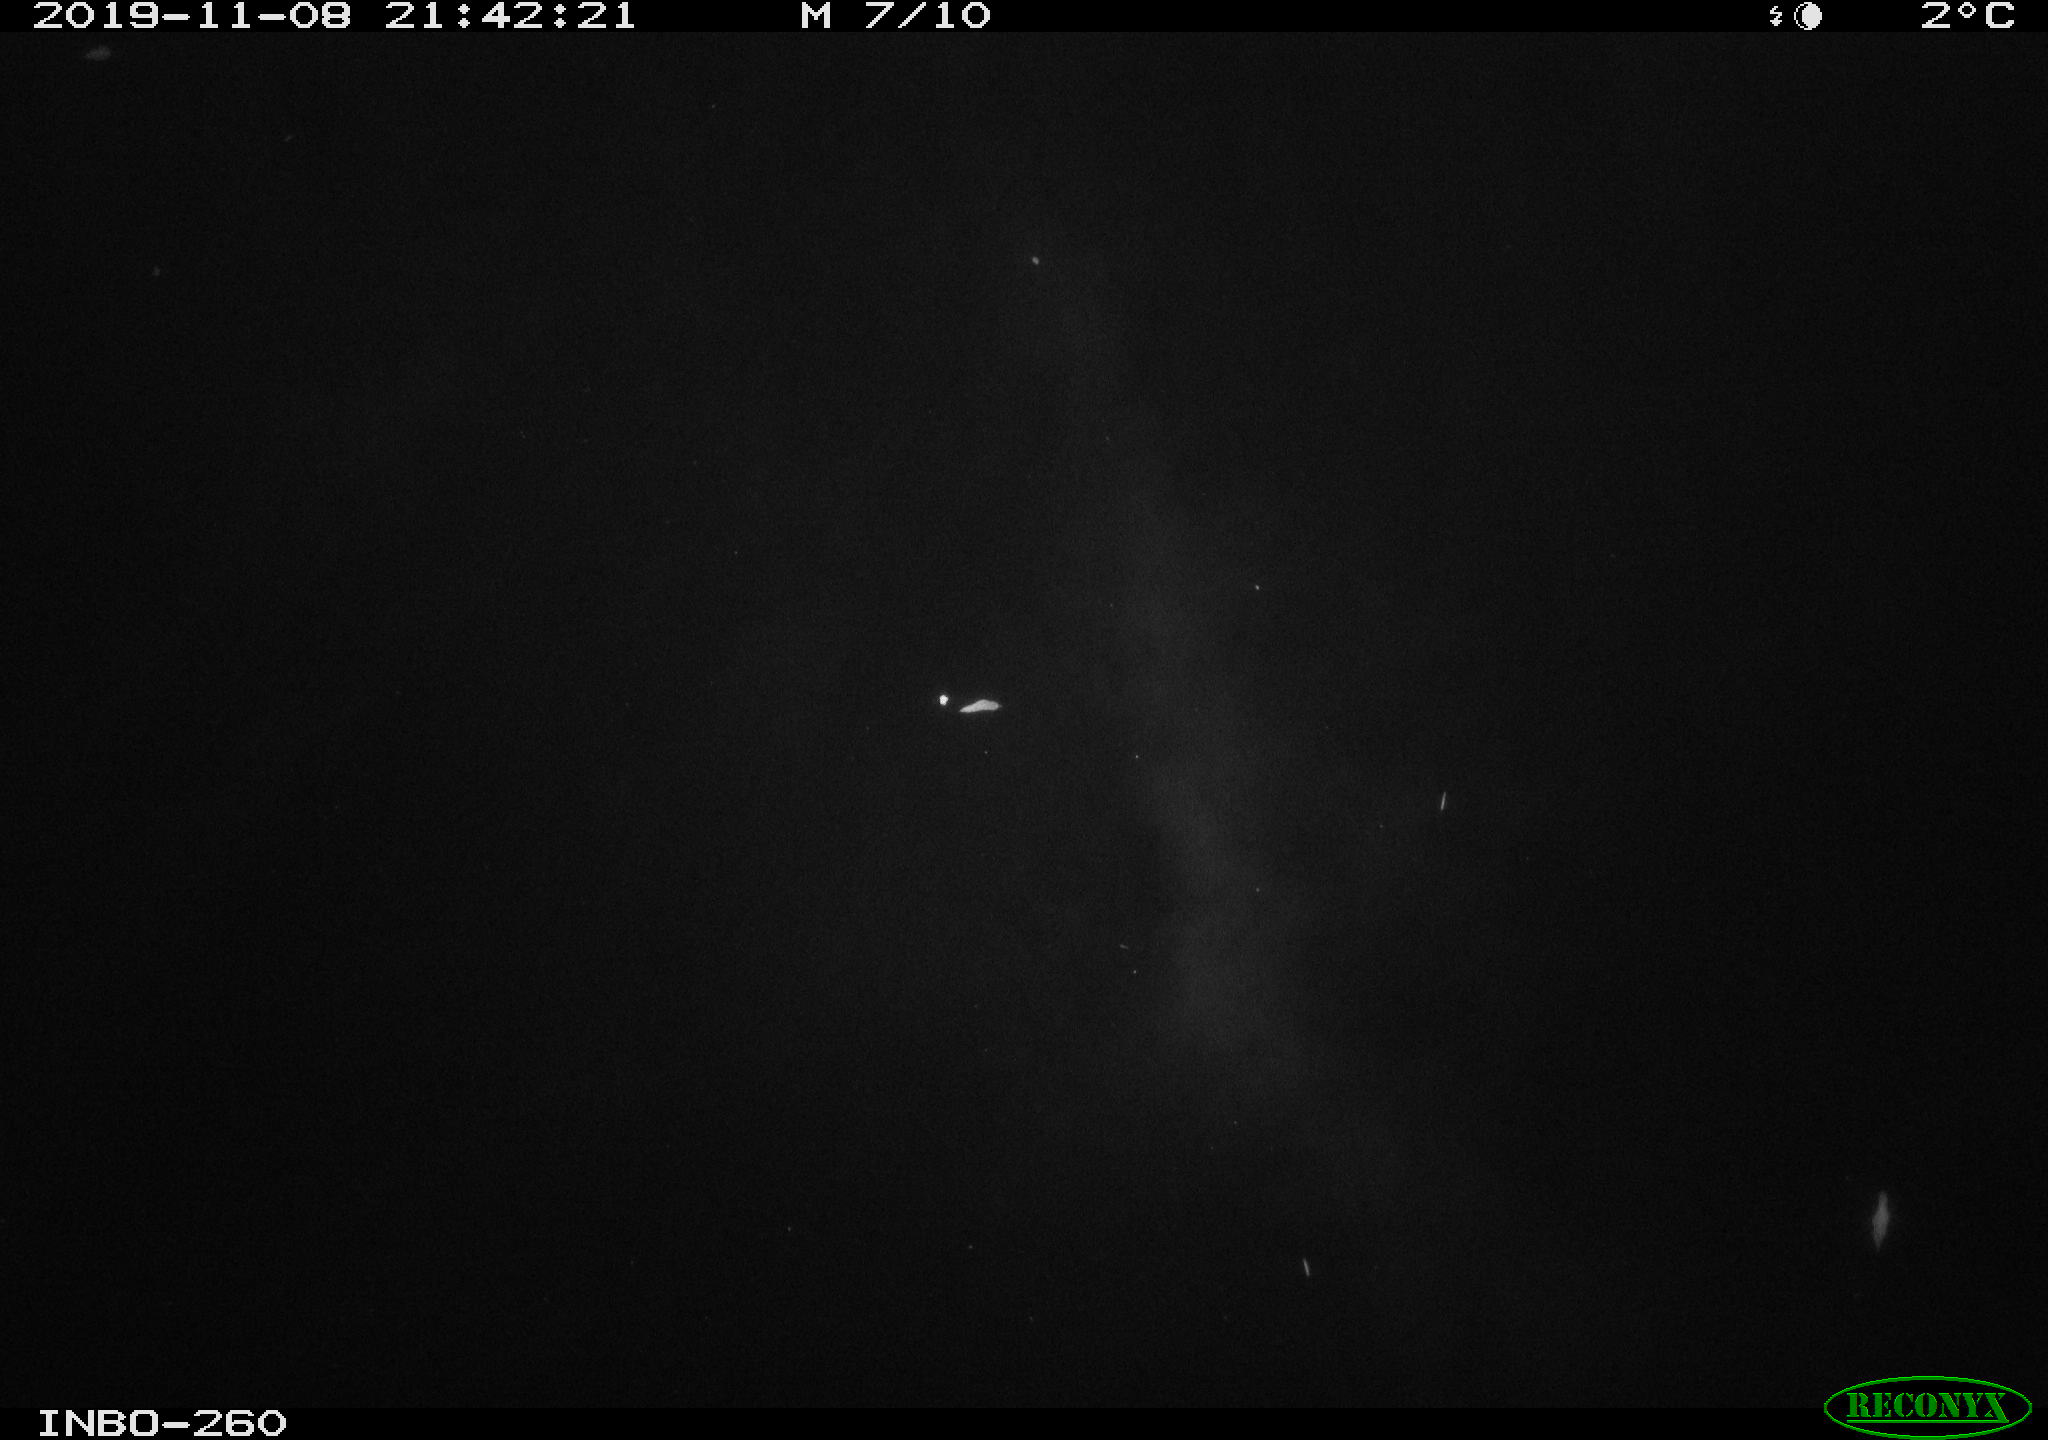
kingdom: Animalia
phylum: Chordata
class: Aves
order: Anseriformes
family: Anatidae
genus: Anas
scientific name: Anas platyrhynchos
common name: Mallard
